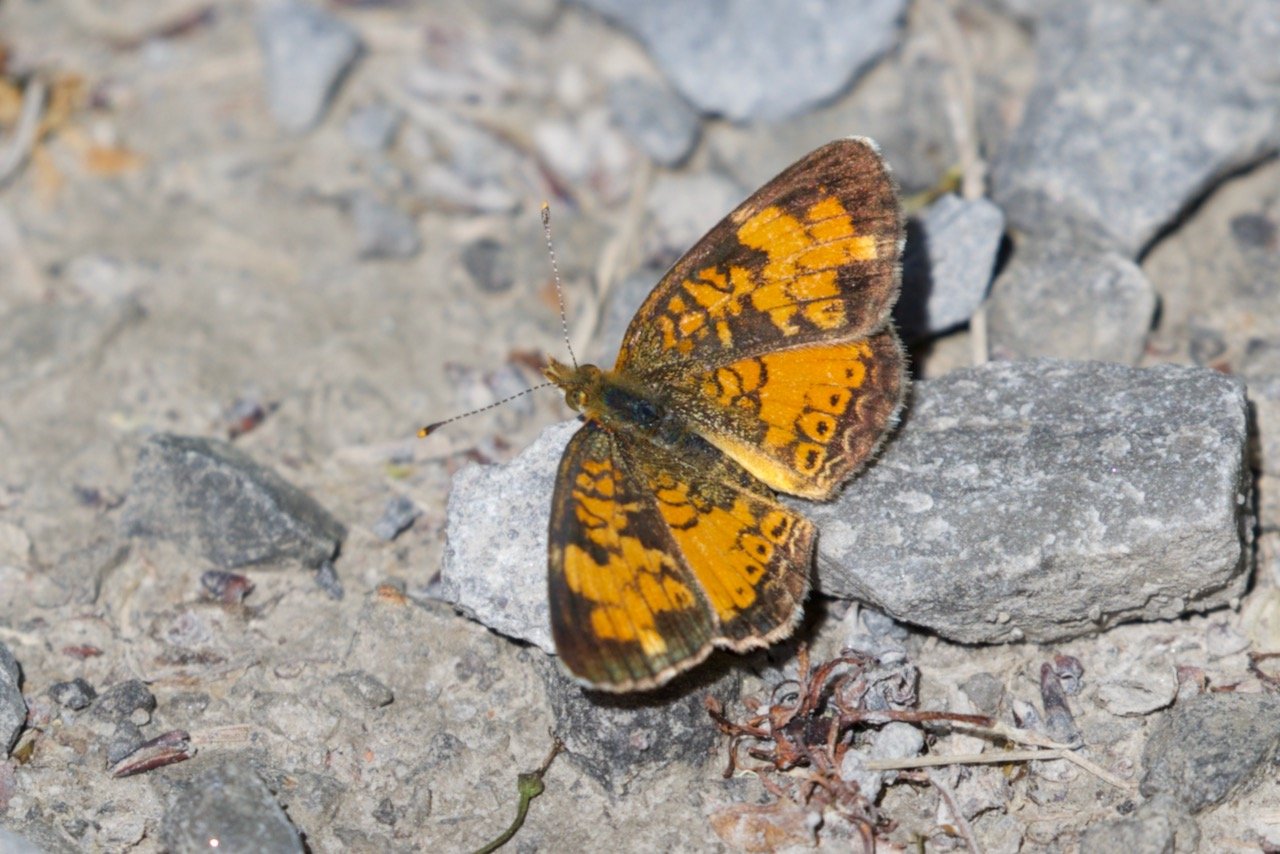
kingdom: Animalia
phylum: Arthropoda
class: Insecta
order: Lepidoptera
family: Nymphalidae
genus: Phyciodes
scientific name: Phyciodes tharos
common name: Northern Crescent
